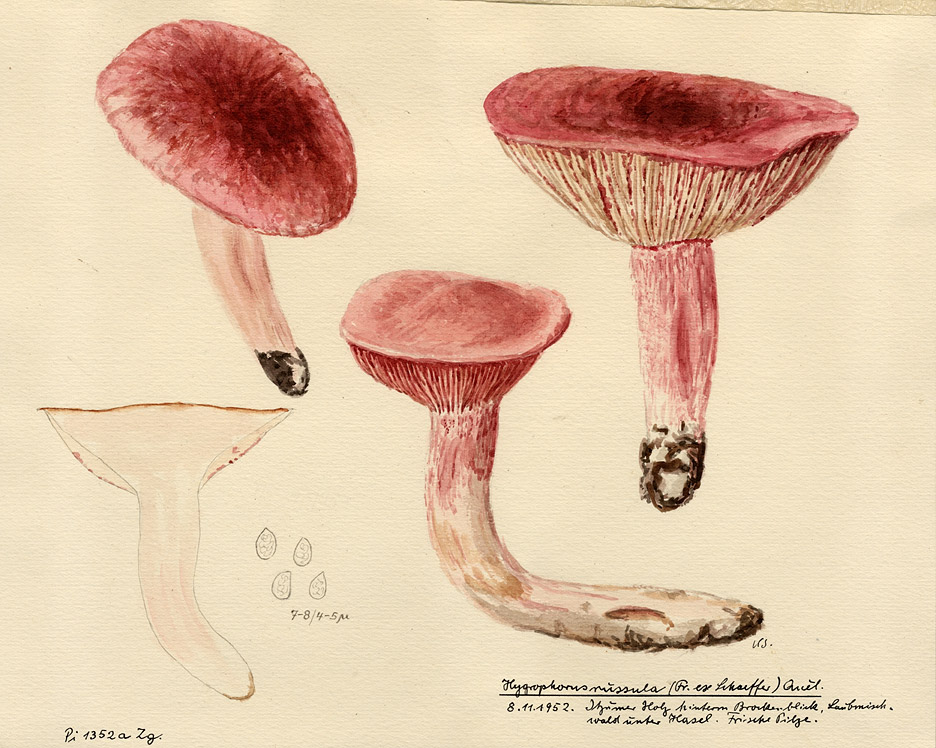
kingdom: Fungi
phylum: Basidiomycota
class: Agaricomycetes
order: Agaricales
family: Hygrophoraceae
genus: Hygrophorus
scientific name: Hygrophorus russula
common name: Pinkmottle woodwax
